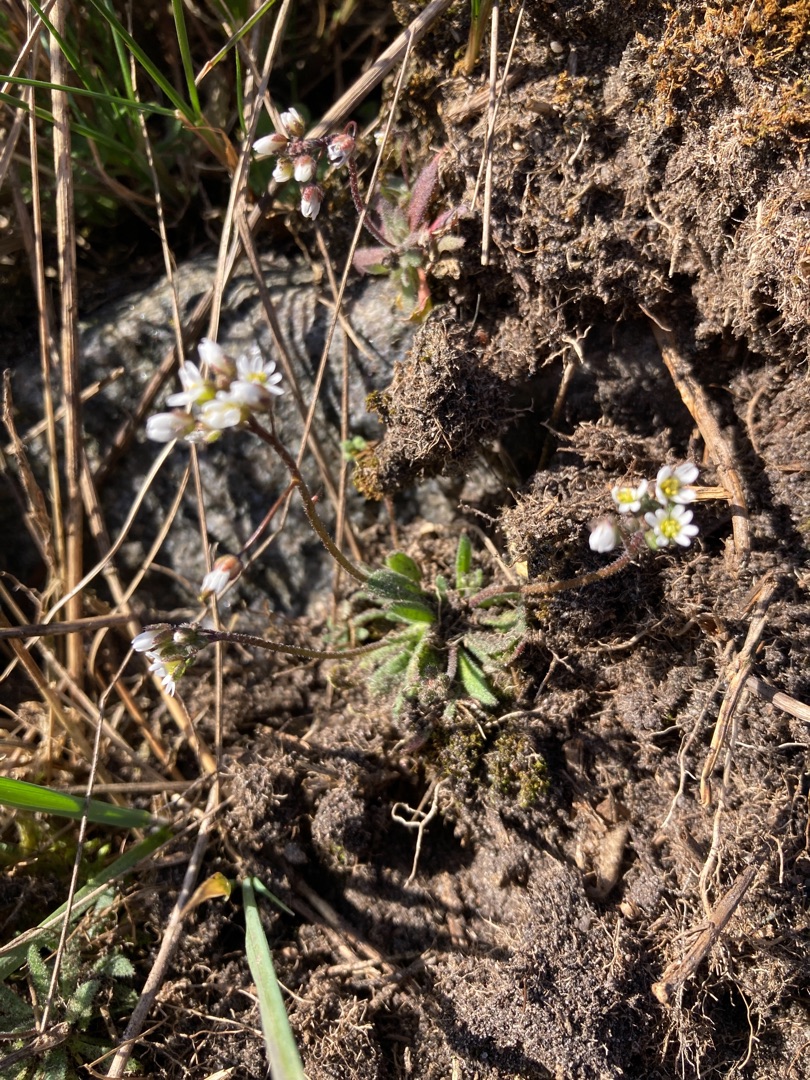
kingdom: Plantae
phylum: Tracheophyta
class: Magnoliopsida
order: Brassicales
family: Brassicaceae
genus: Draba
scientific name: Draba verna
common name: Vår-gæslingeblomst
